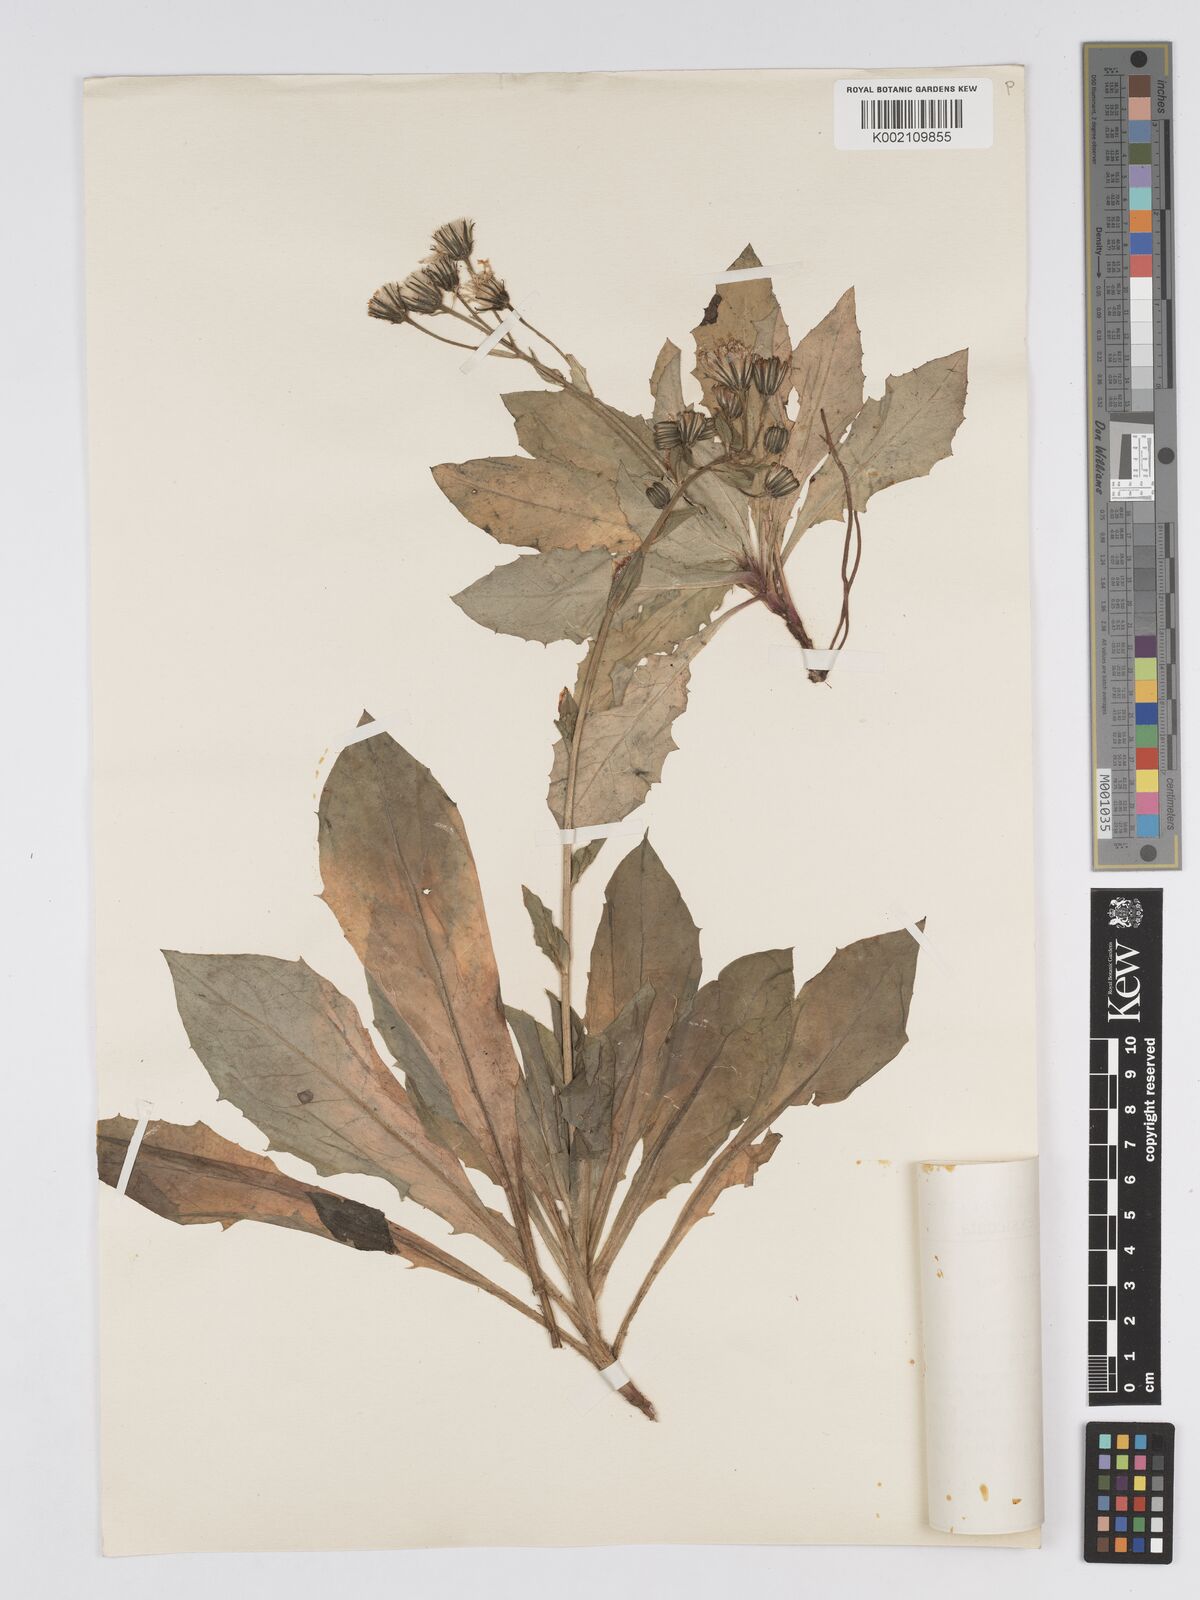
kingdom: Plantae
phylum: Tracheophyta
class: Magnoliopsida
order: Asterales
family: Asteraceae
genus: Hieracium
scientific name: Hieracium pojoritense
